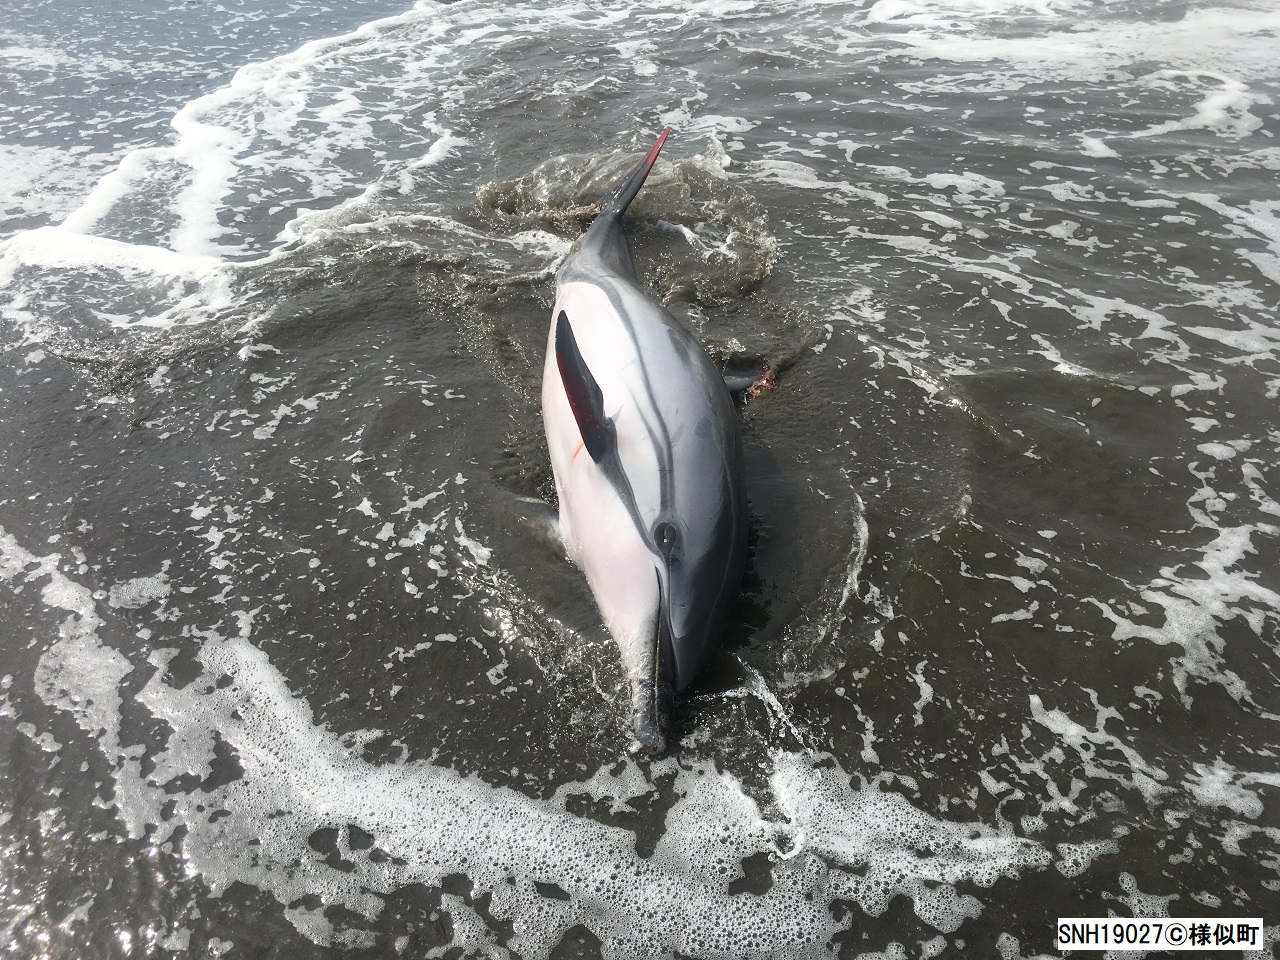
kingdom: Animalia
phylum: Chordata
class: Mammalia
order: Cetacea
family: Delphinidae
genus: Stenella
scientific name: Stenella coeruleoalba
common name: Striped dolphin
